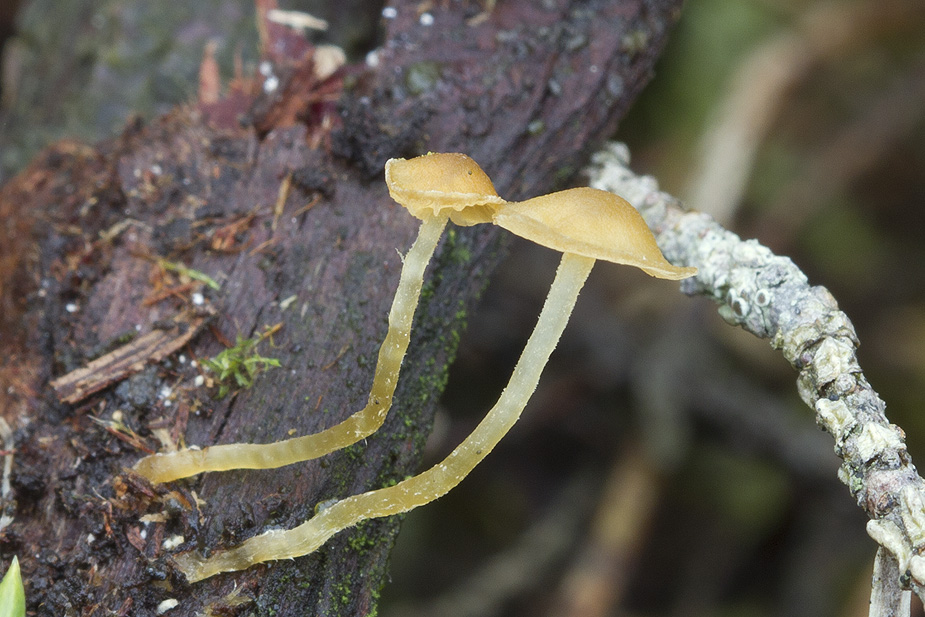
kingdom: Fungi
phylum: Basidiomycota
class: Agaricomycetes
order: Agaricales
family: Hymenogastraceae
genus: Galerina
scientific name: Galerina
